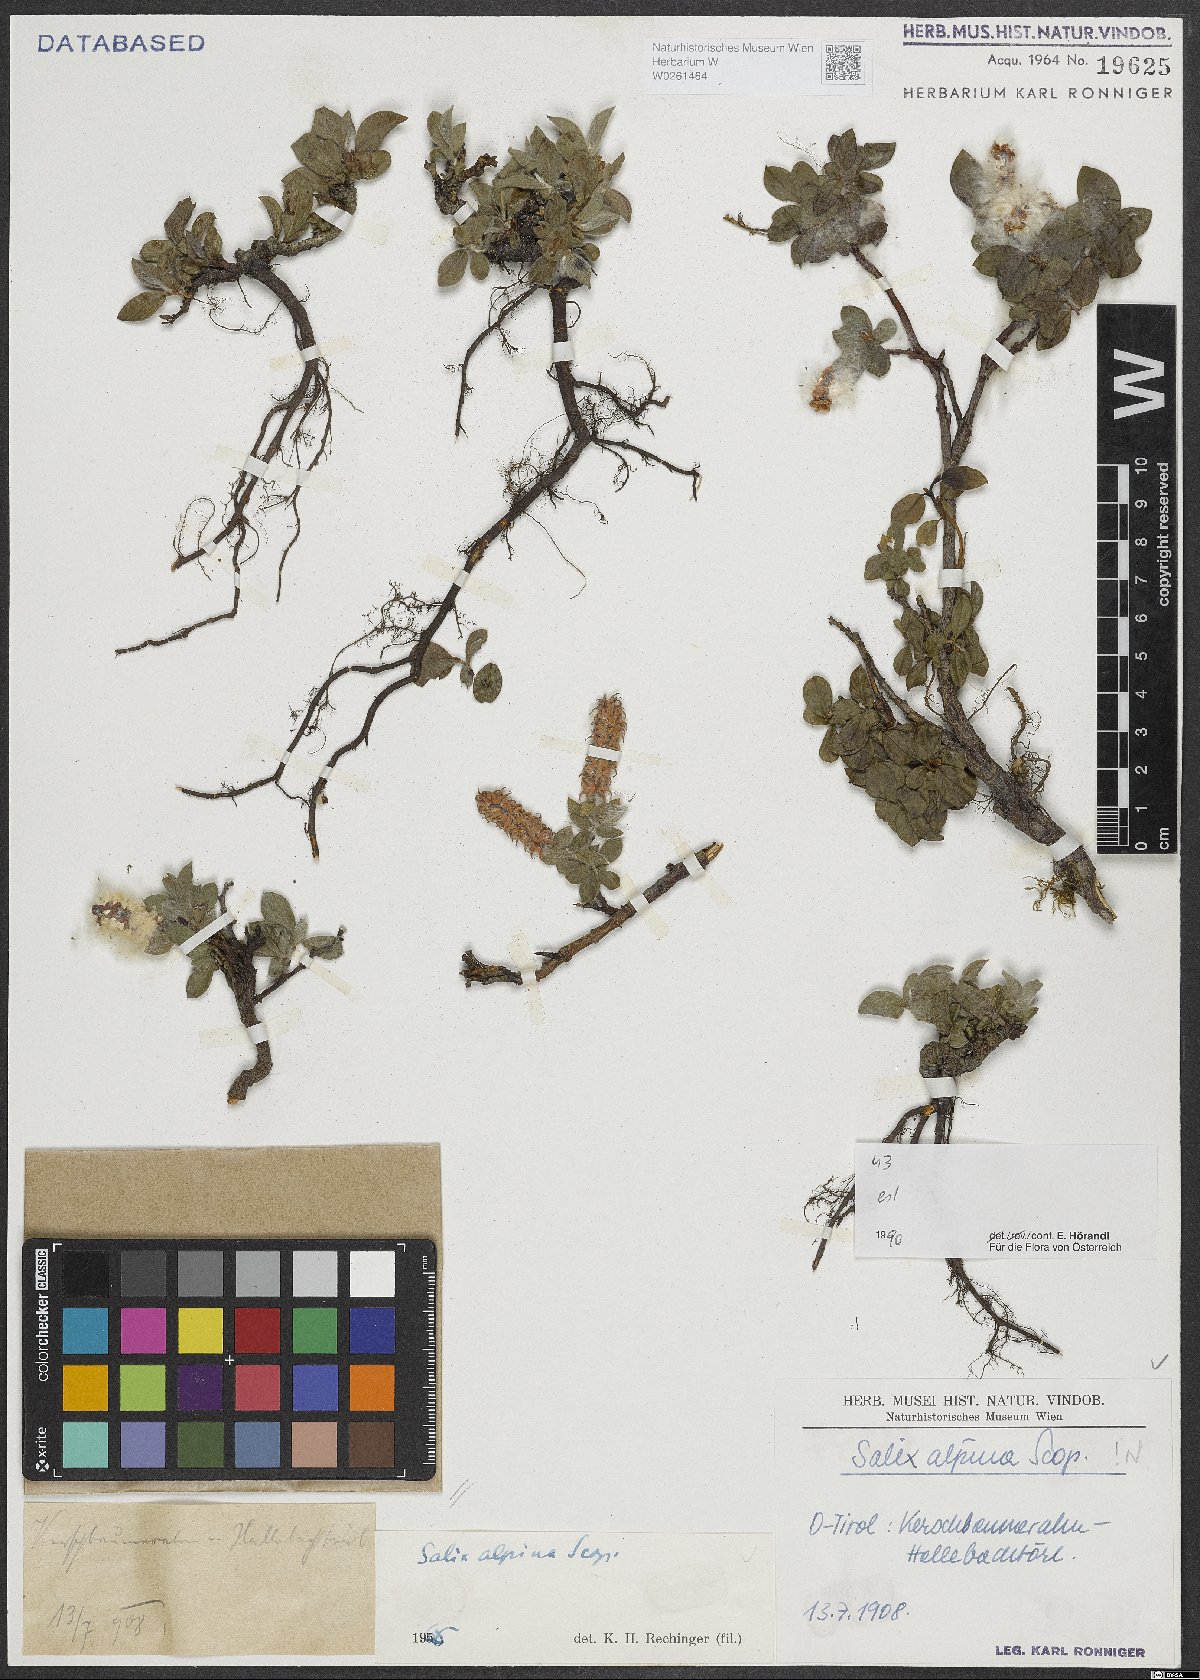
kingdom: Plantae
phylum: Tracheophyta
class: Magnoliopsida
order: Malpighiales
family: Salicaceae
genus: Salix
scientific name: Salix alpina
